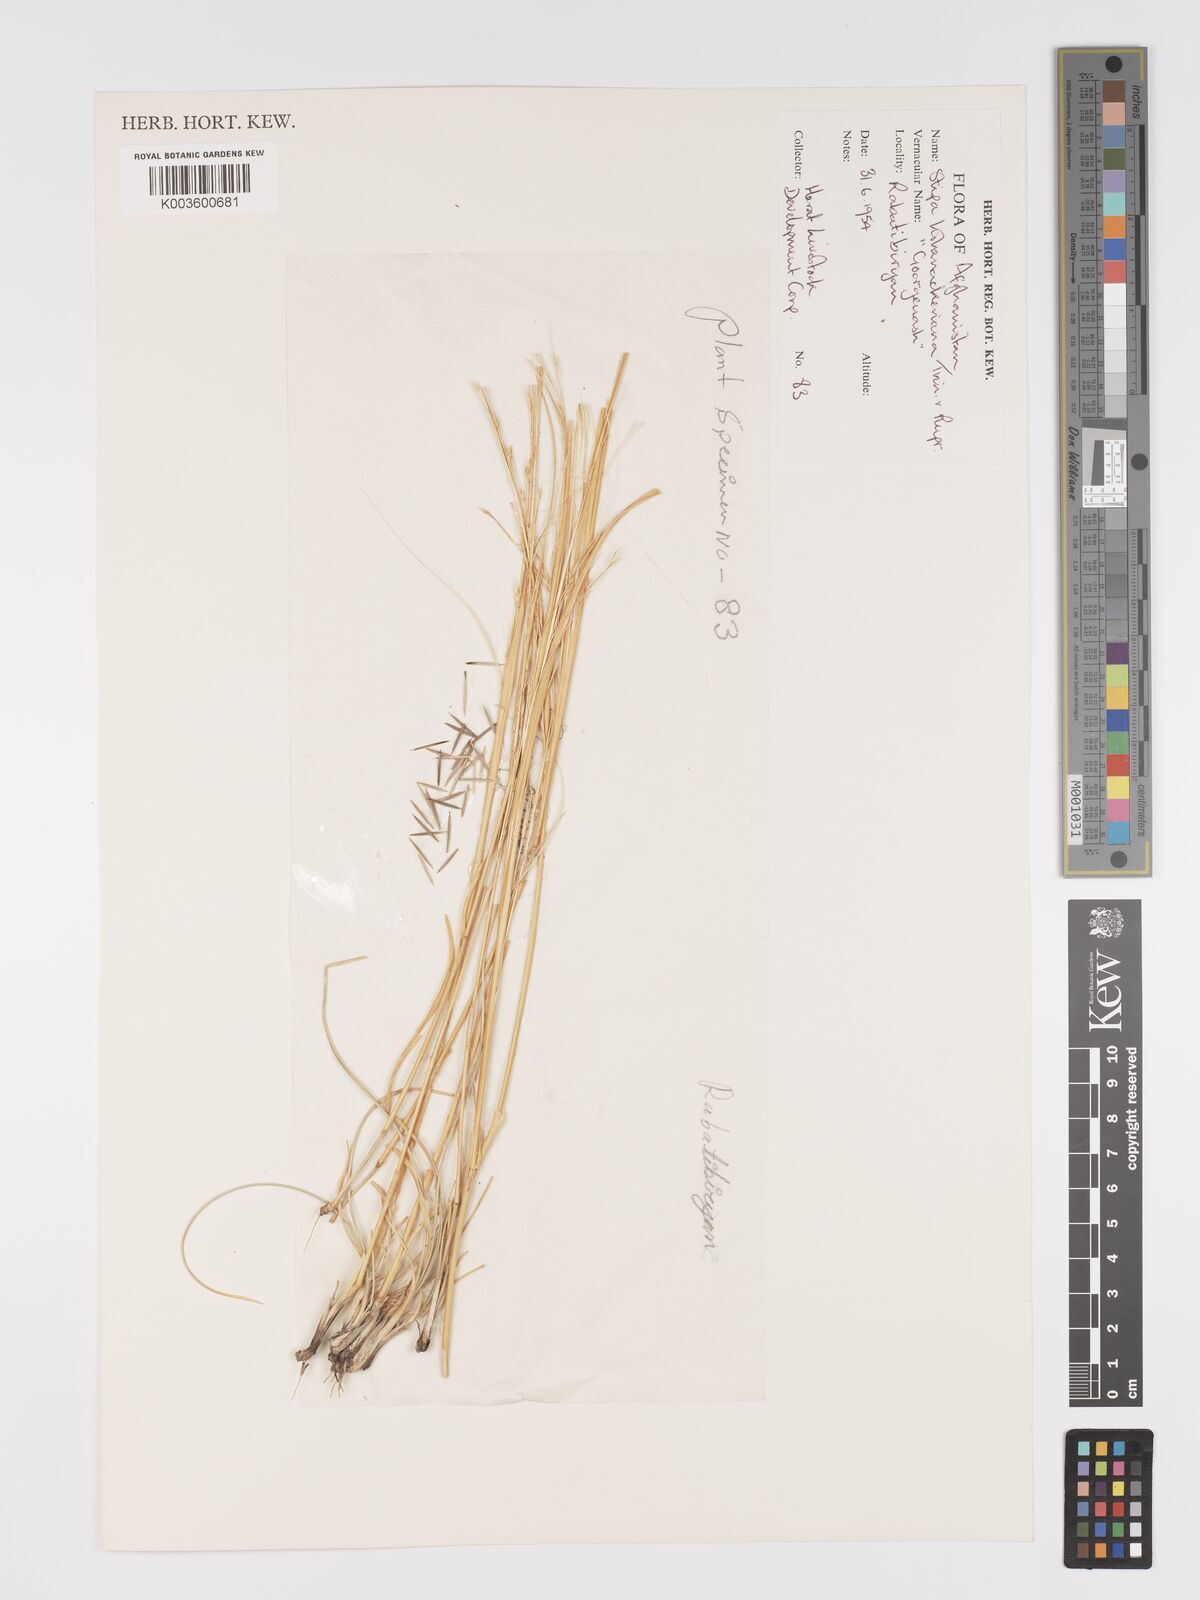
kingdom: Plantae
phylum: Tracheophyta
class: Liliopsida
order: Poales
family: Poaceae
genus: Stipa
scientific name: Stipa hohenackeriana
